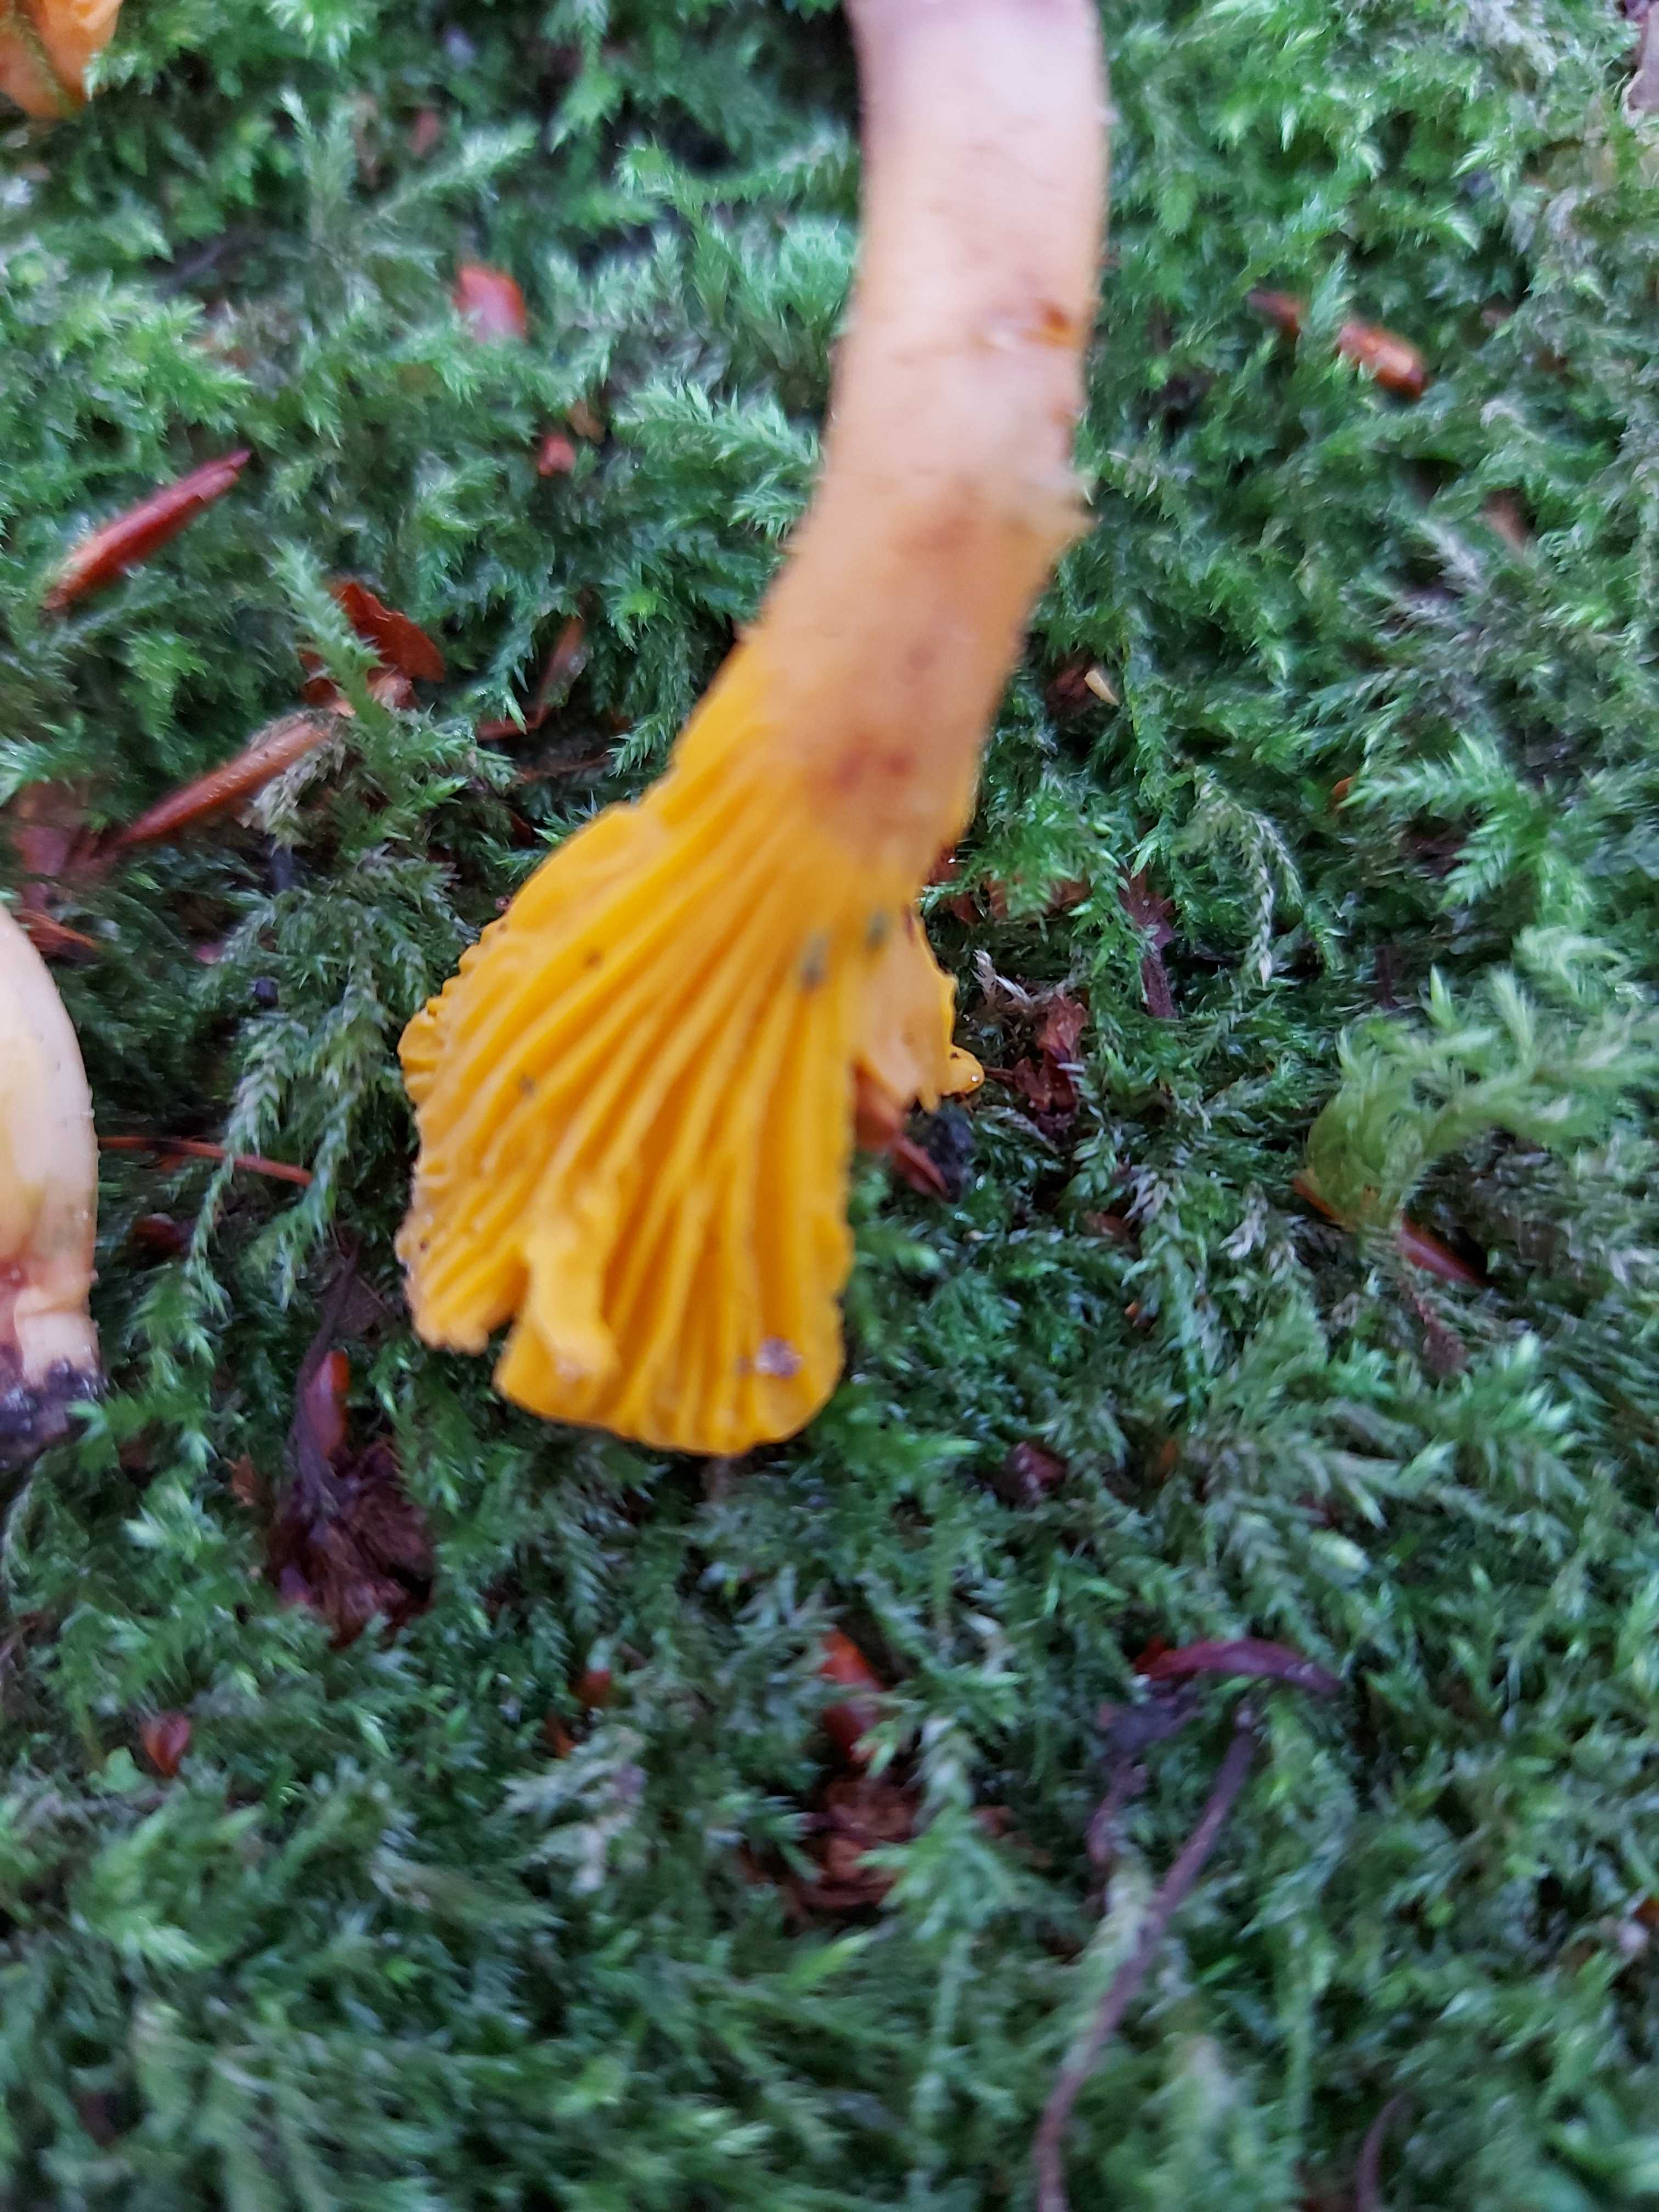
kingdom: Fungi
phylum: Basidiomycota
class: Agaricomycetes
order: Cantharellales
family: Hydnaceae
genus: Cantharellus
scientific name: Cantharellus cibarius
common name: almindelig kantarel
